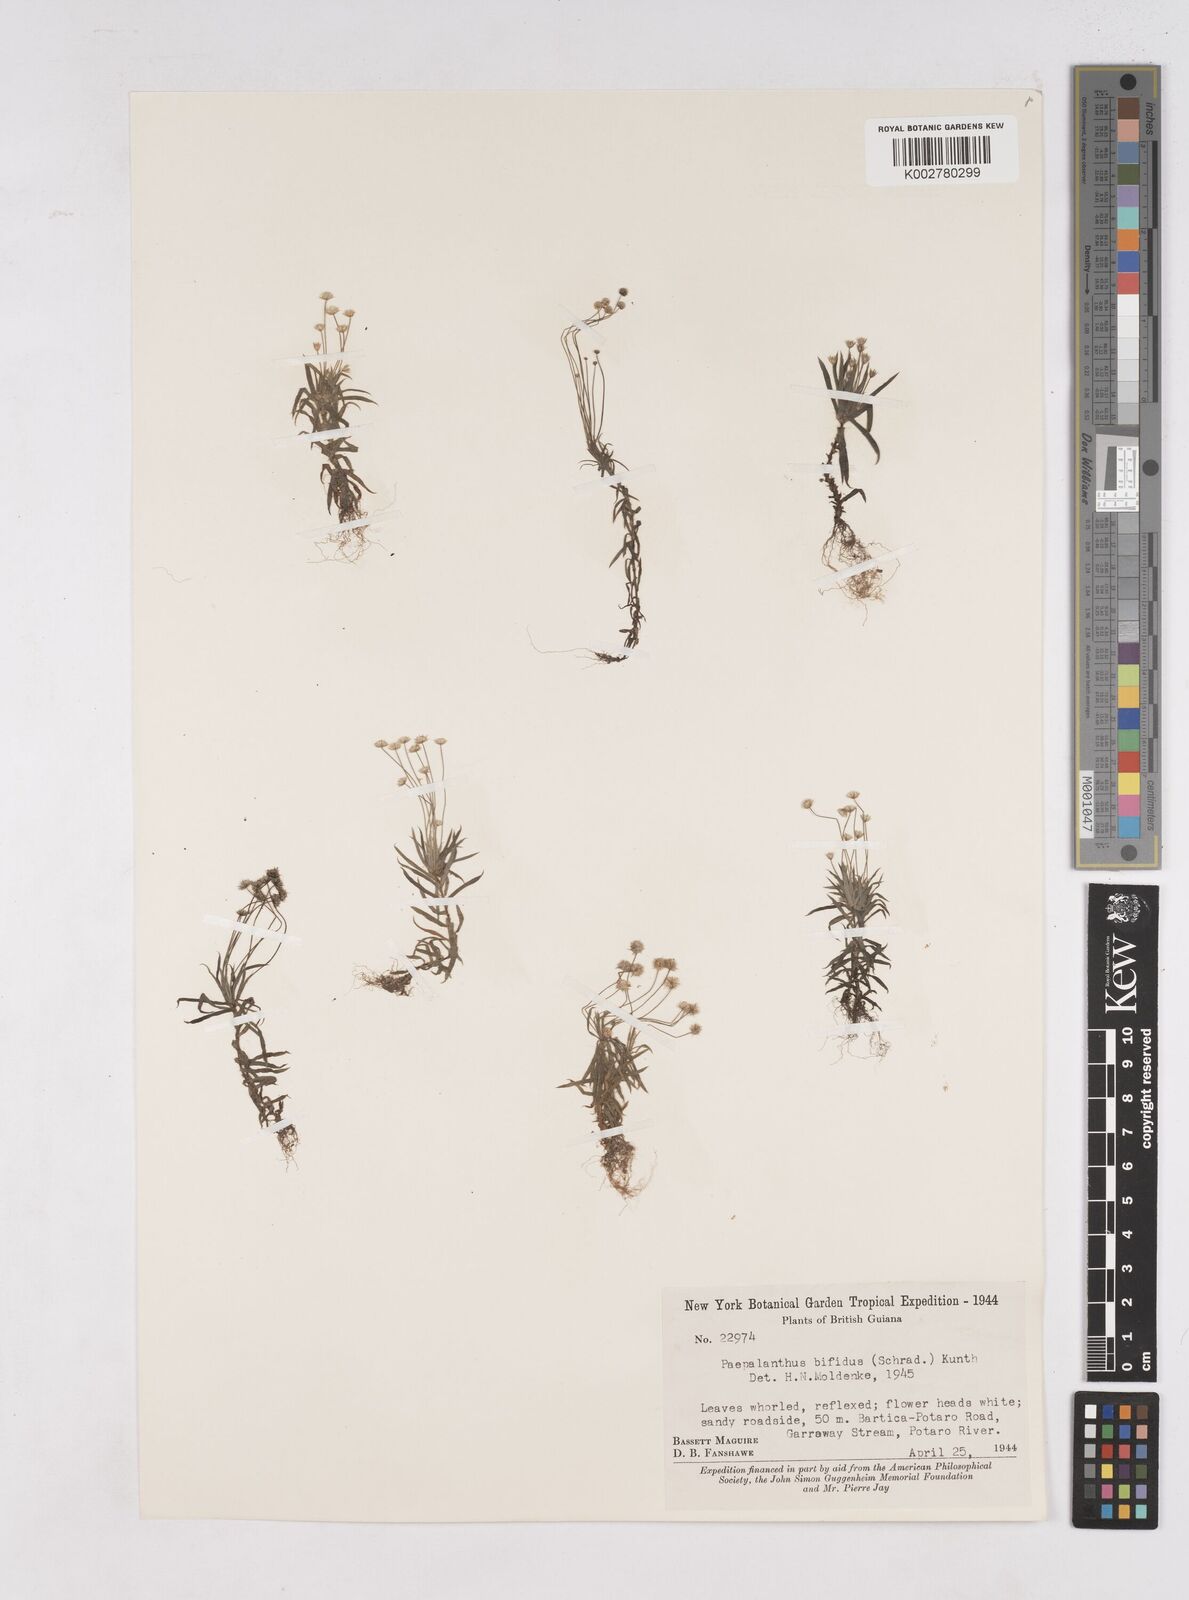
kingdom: Plantae
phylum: Tracheophyta
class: Liliopsida
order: Poales
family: Eriocaulaceae
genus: Paepalanthus
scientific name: Paepalanthus bifidus
